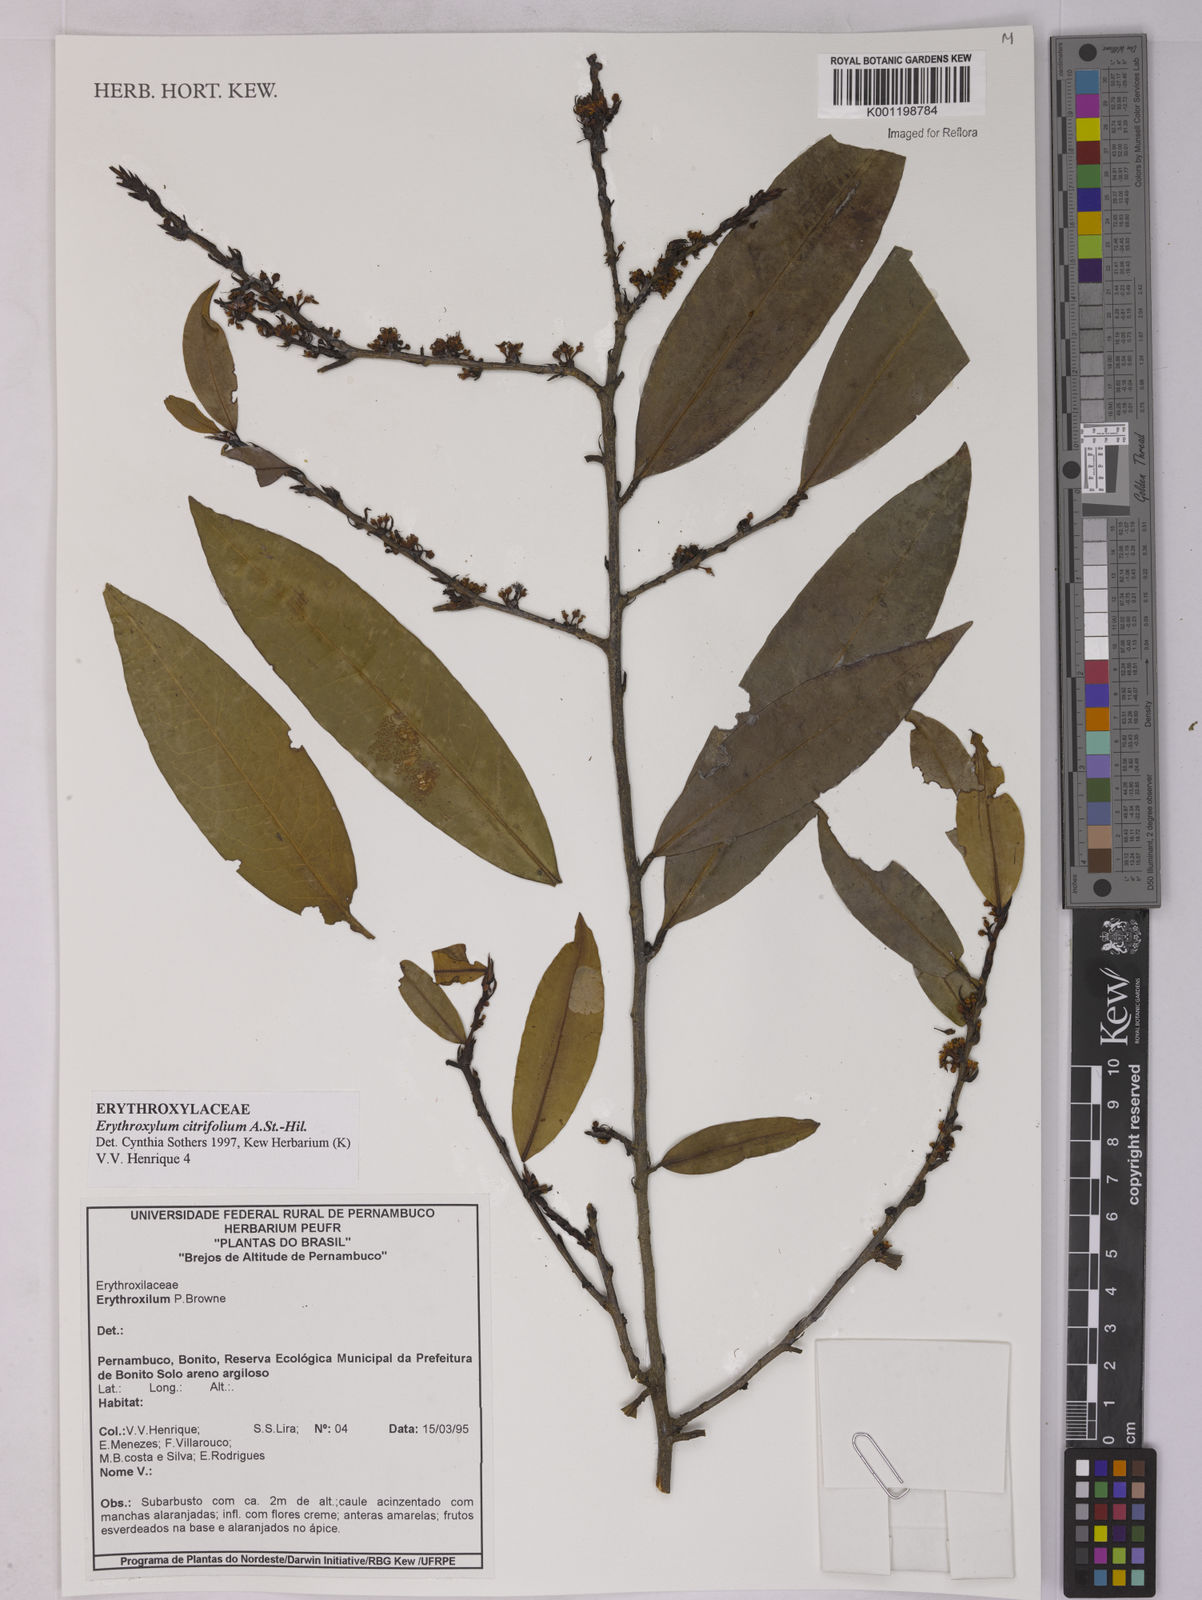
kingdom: Plantae
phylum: Tracheophyta
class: Magnoliopsida
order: Malpighiales
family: Erythroxylaceae
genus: Erythroxylum
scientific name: Erythroxylum citrifolium
